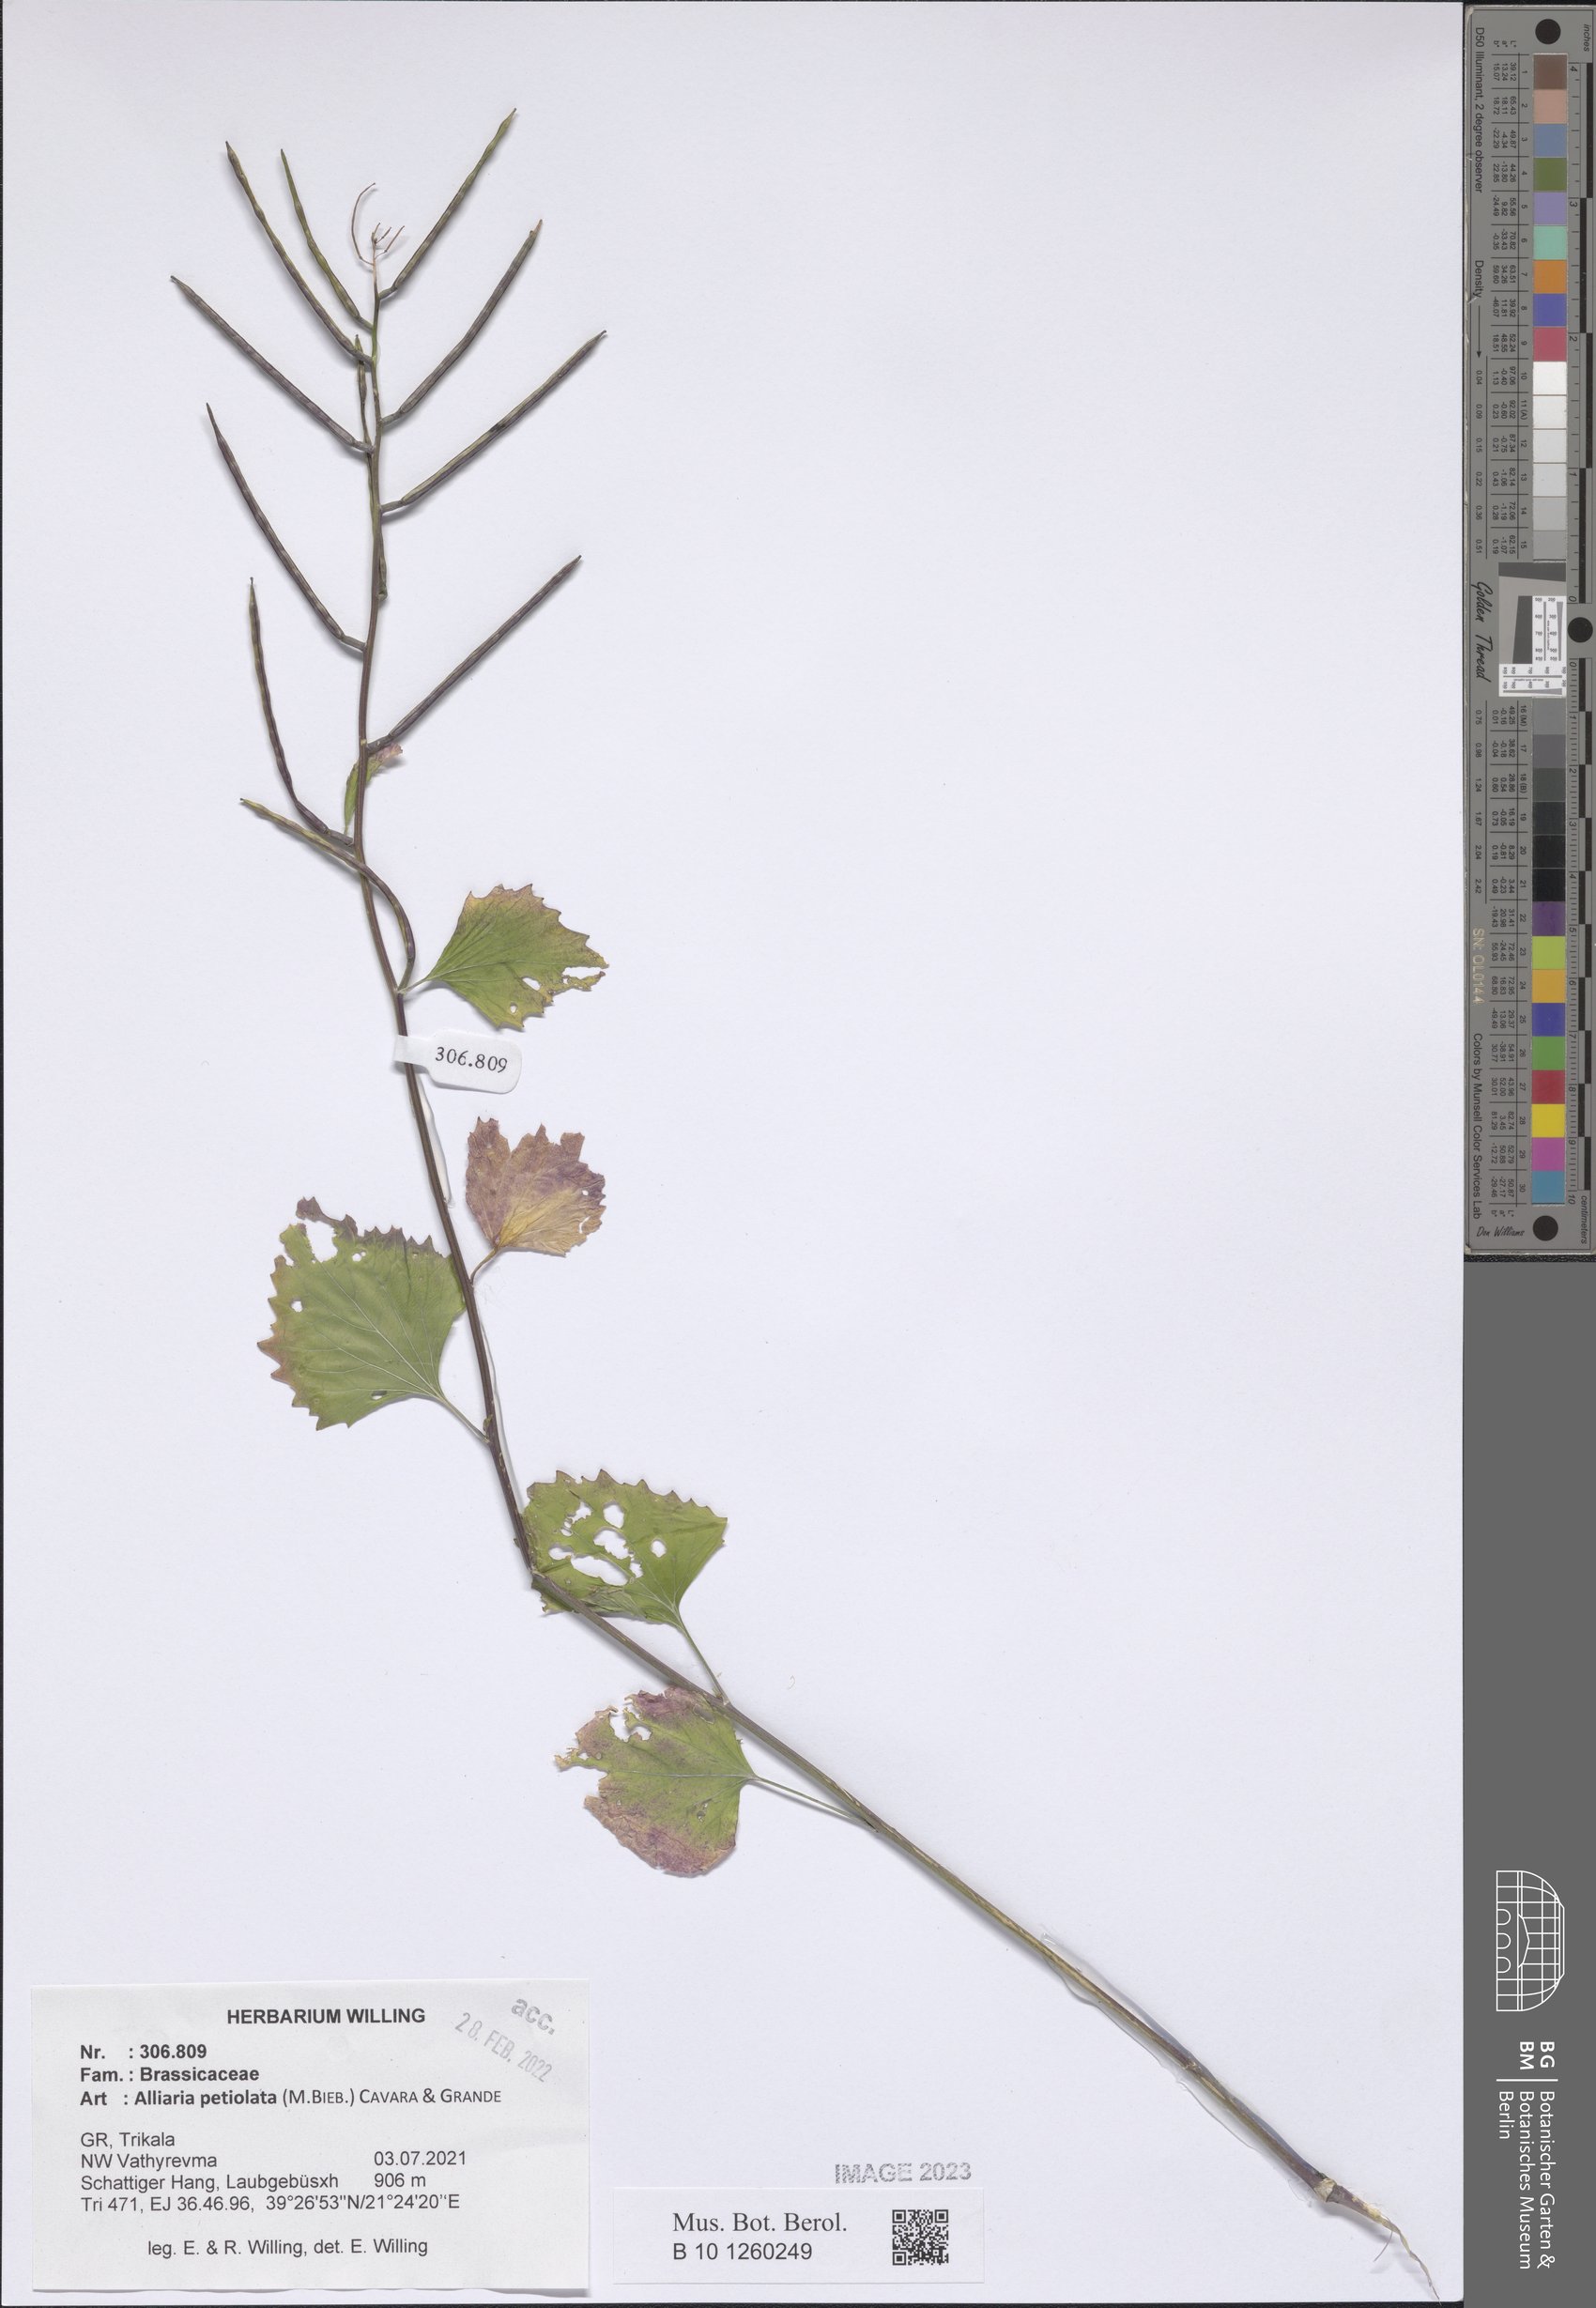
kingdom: Plantae
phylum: Tracheophyta
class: Magnoliopsida
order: Brassicales
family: Brassicaceae
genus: Alliaria
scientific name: Alliaria petiolata
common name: Garlic mustard
